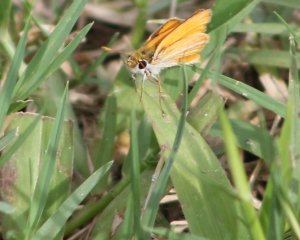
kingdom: Animalia
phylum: Arthropoda
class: Insecta
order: Lepidoptera
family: Hesperiidae
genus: Copaeodes
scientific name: Copaeodes minima
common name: Southern Skipperling
